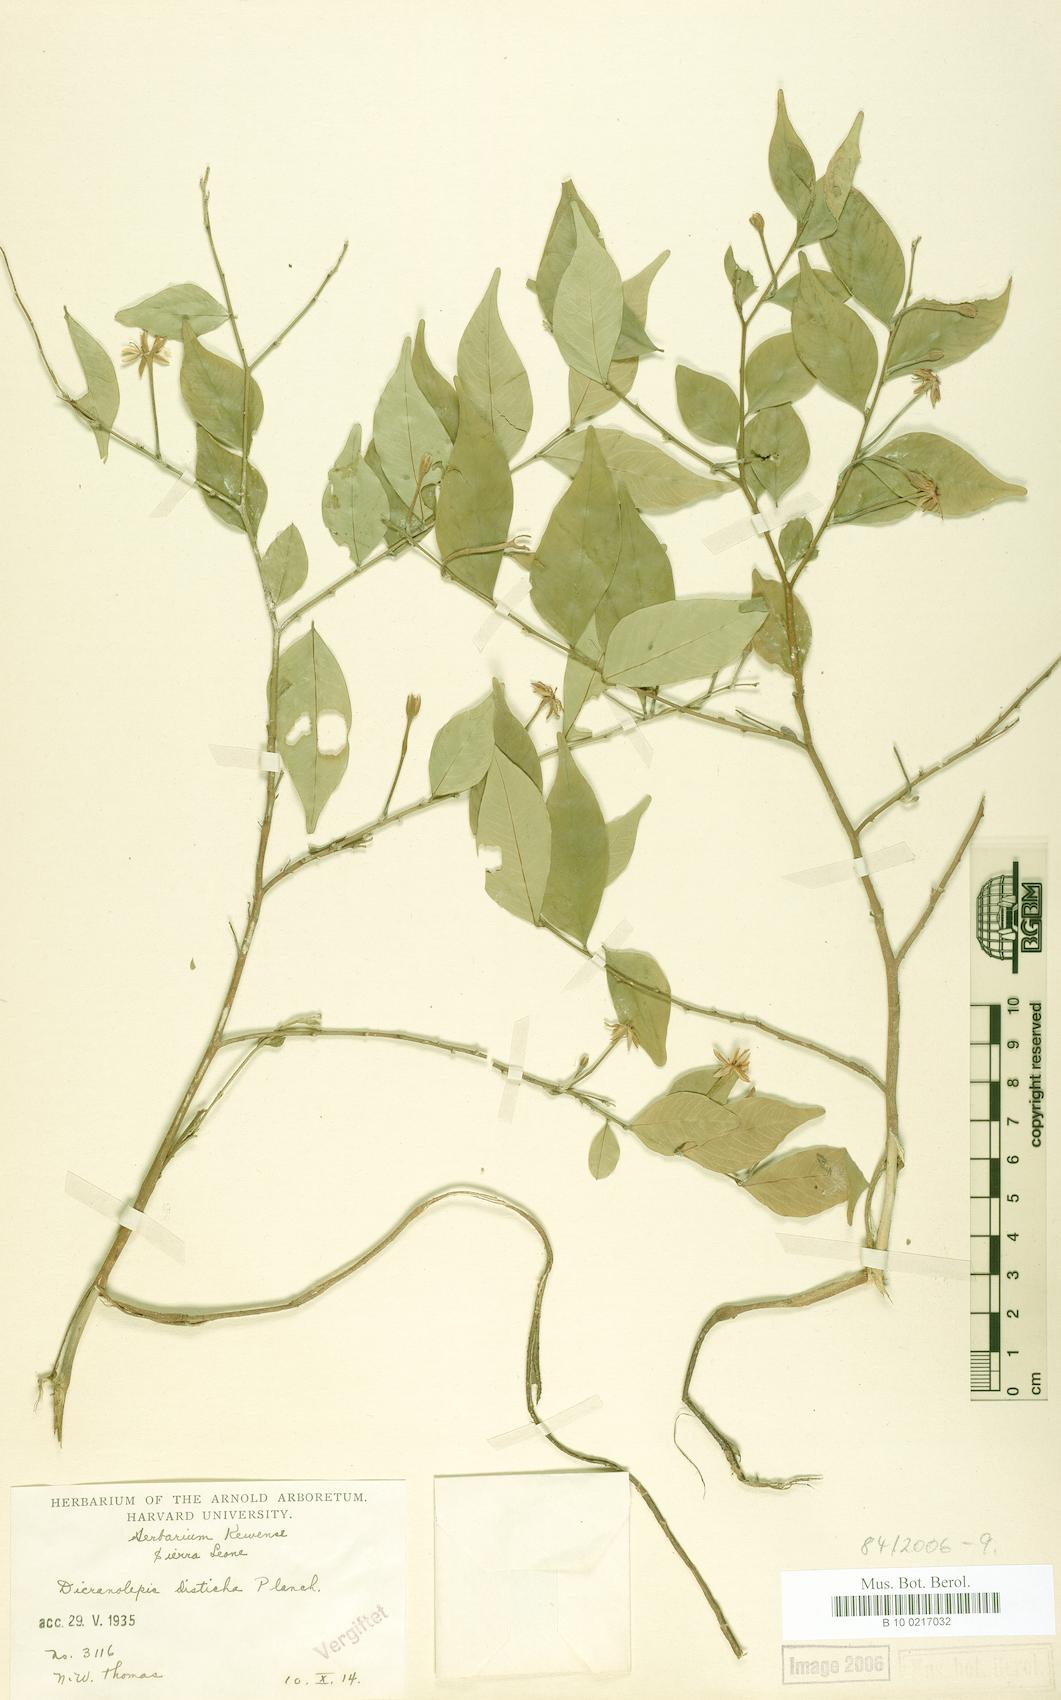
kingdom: Plantae
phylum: Tracheophyta
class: Magnoliopsida
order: Malvales
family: Thymelaeaceae
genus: Dicranolepis
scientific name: Dicranolepis disticha
